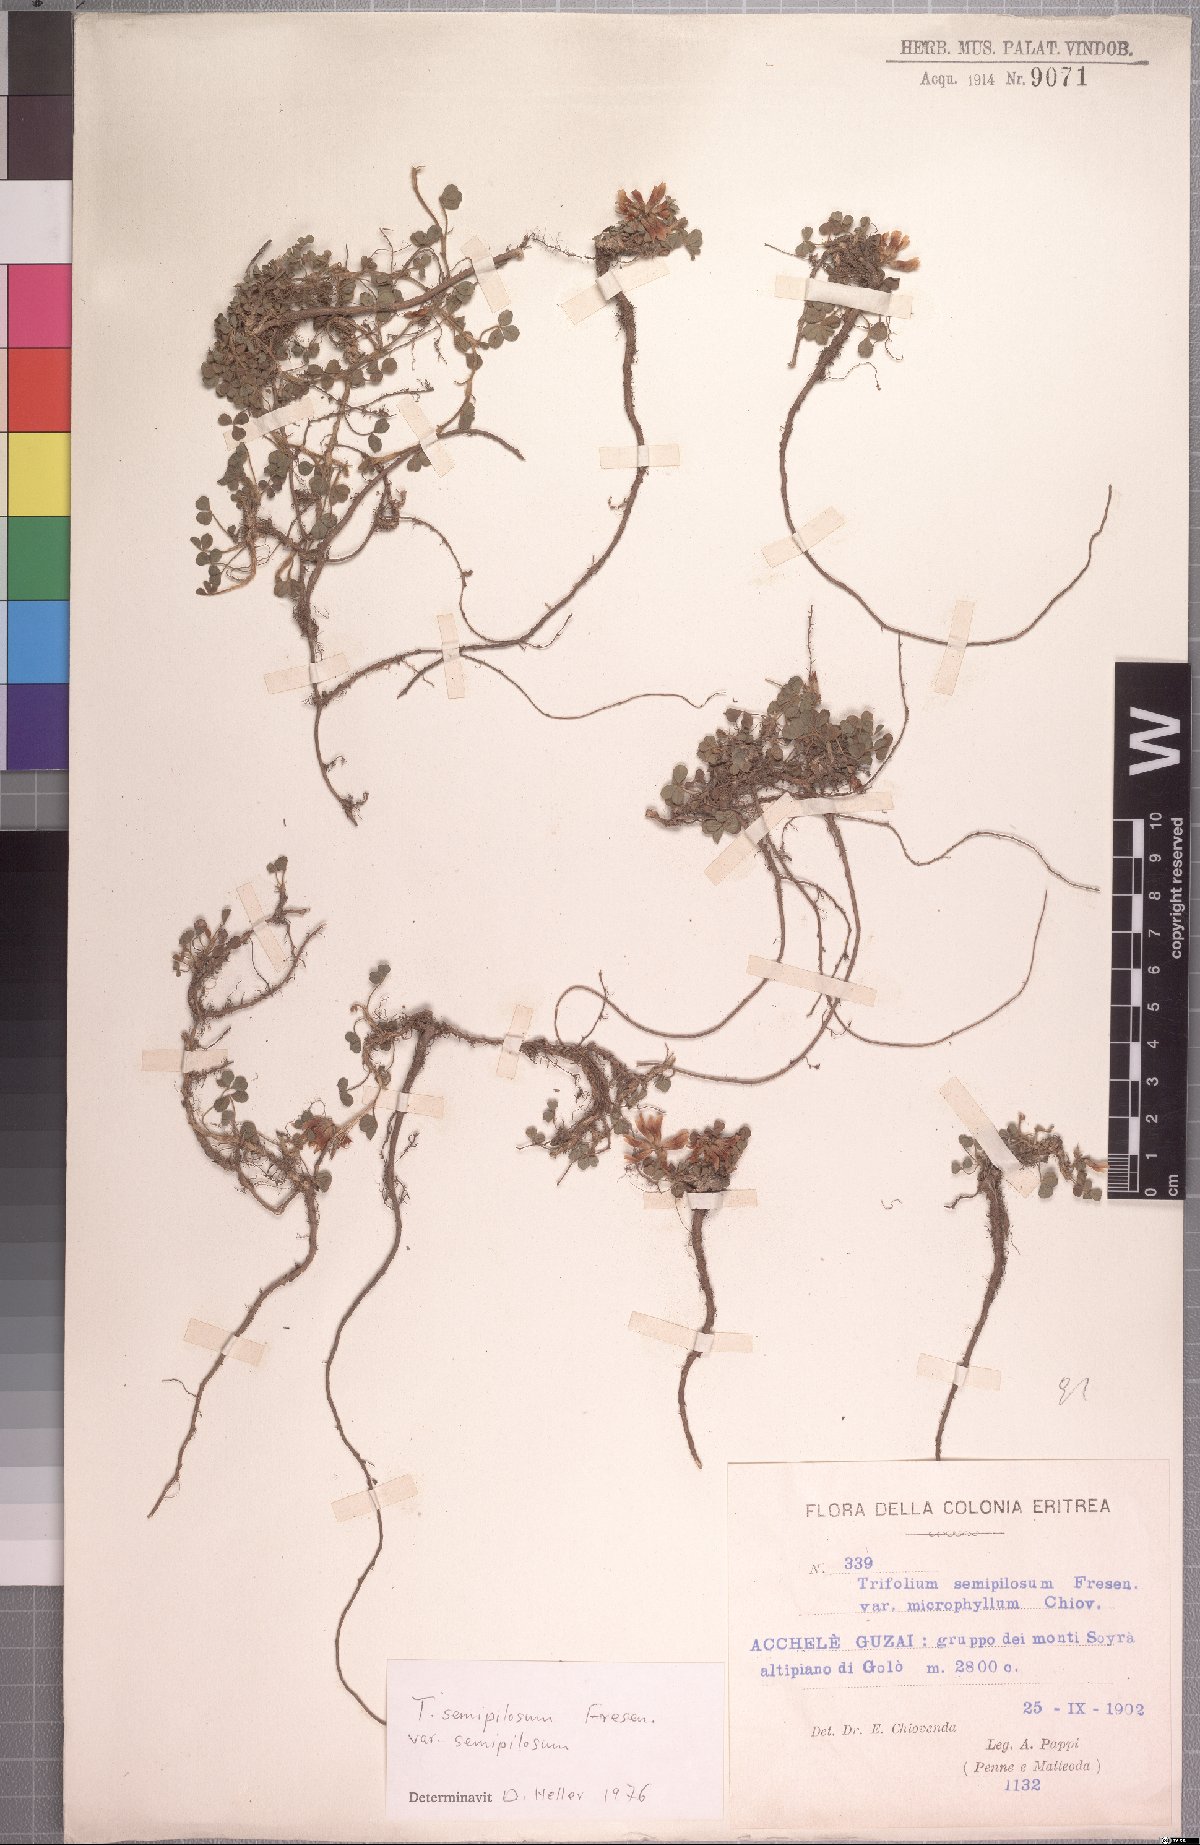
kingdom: Plantae
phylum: Tracheophyta
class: Magnoliopsida
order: Fabales
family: Fabaceae
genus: Trifolium
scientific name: Trifolium semipilosum
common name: Kenya clover
